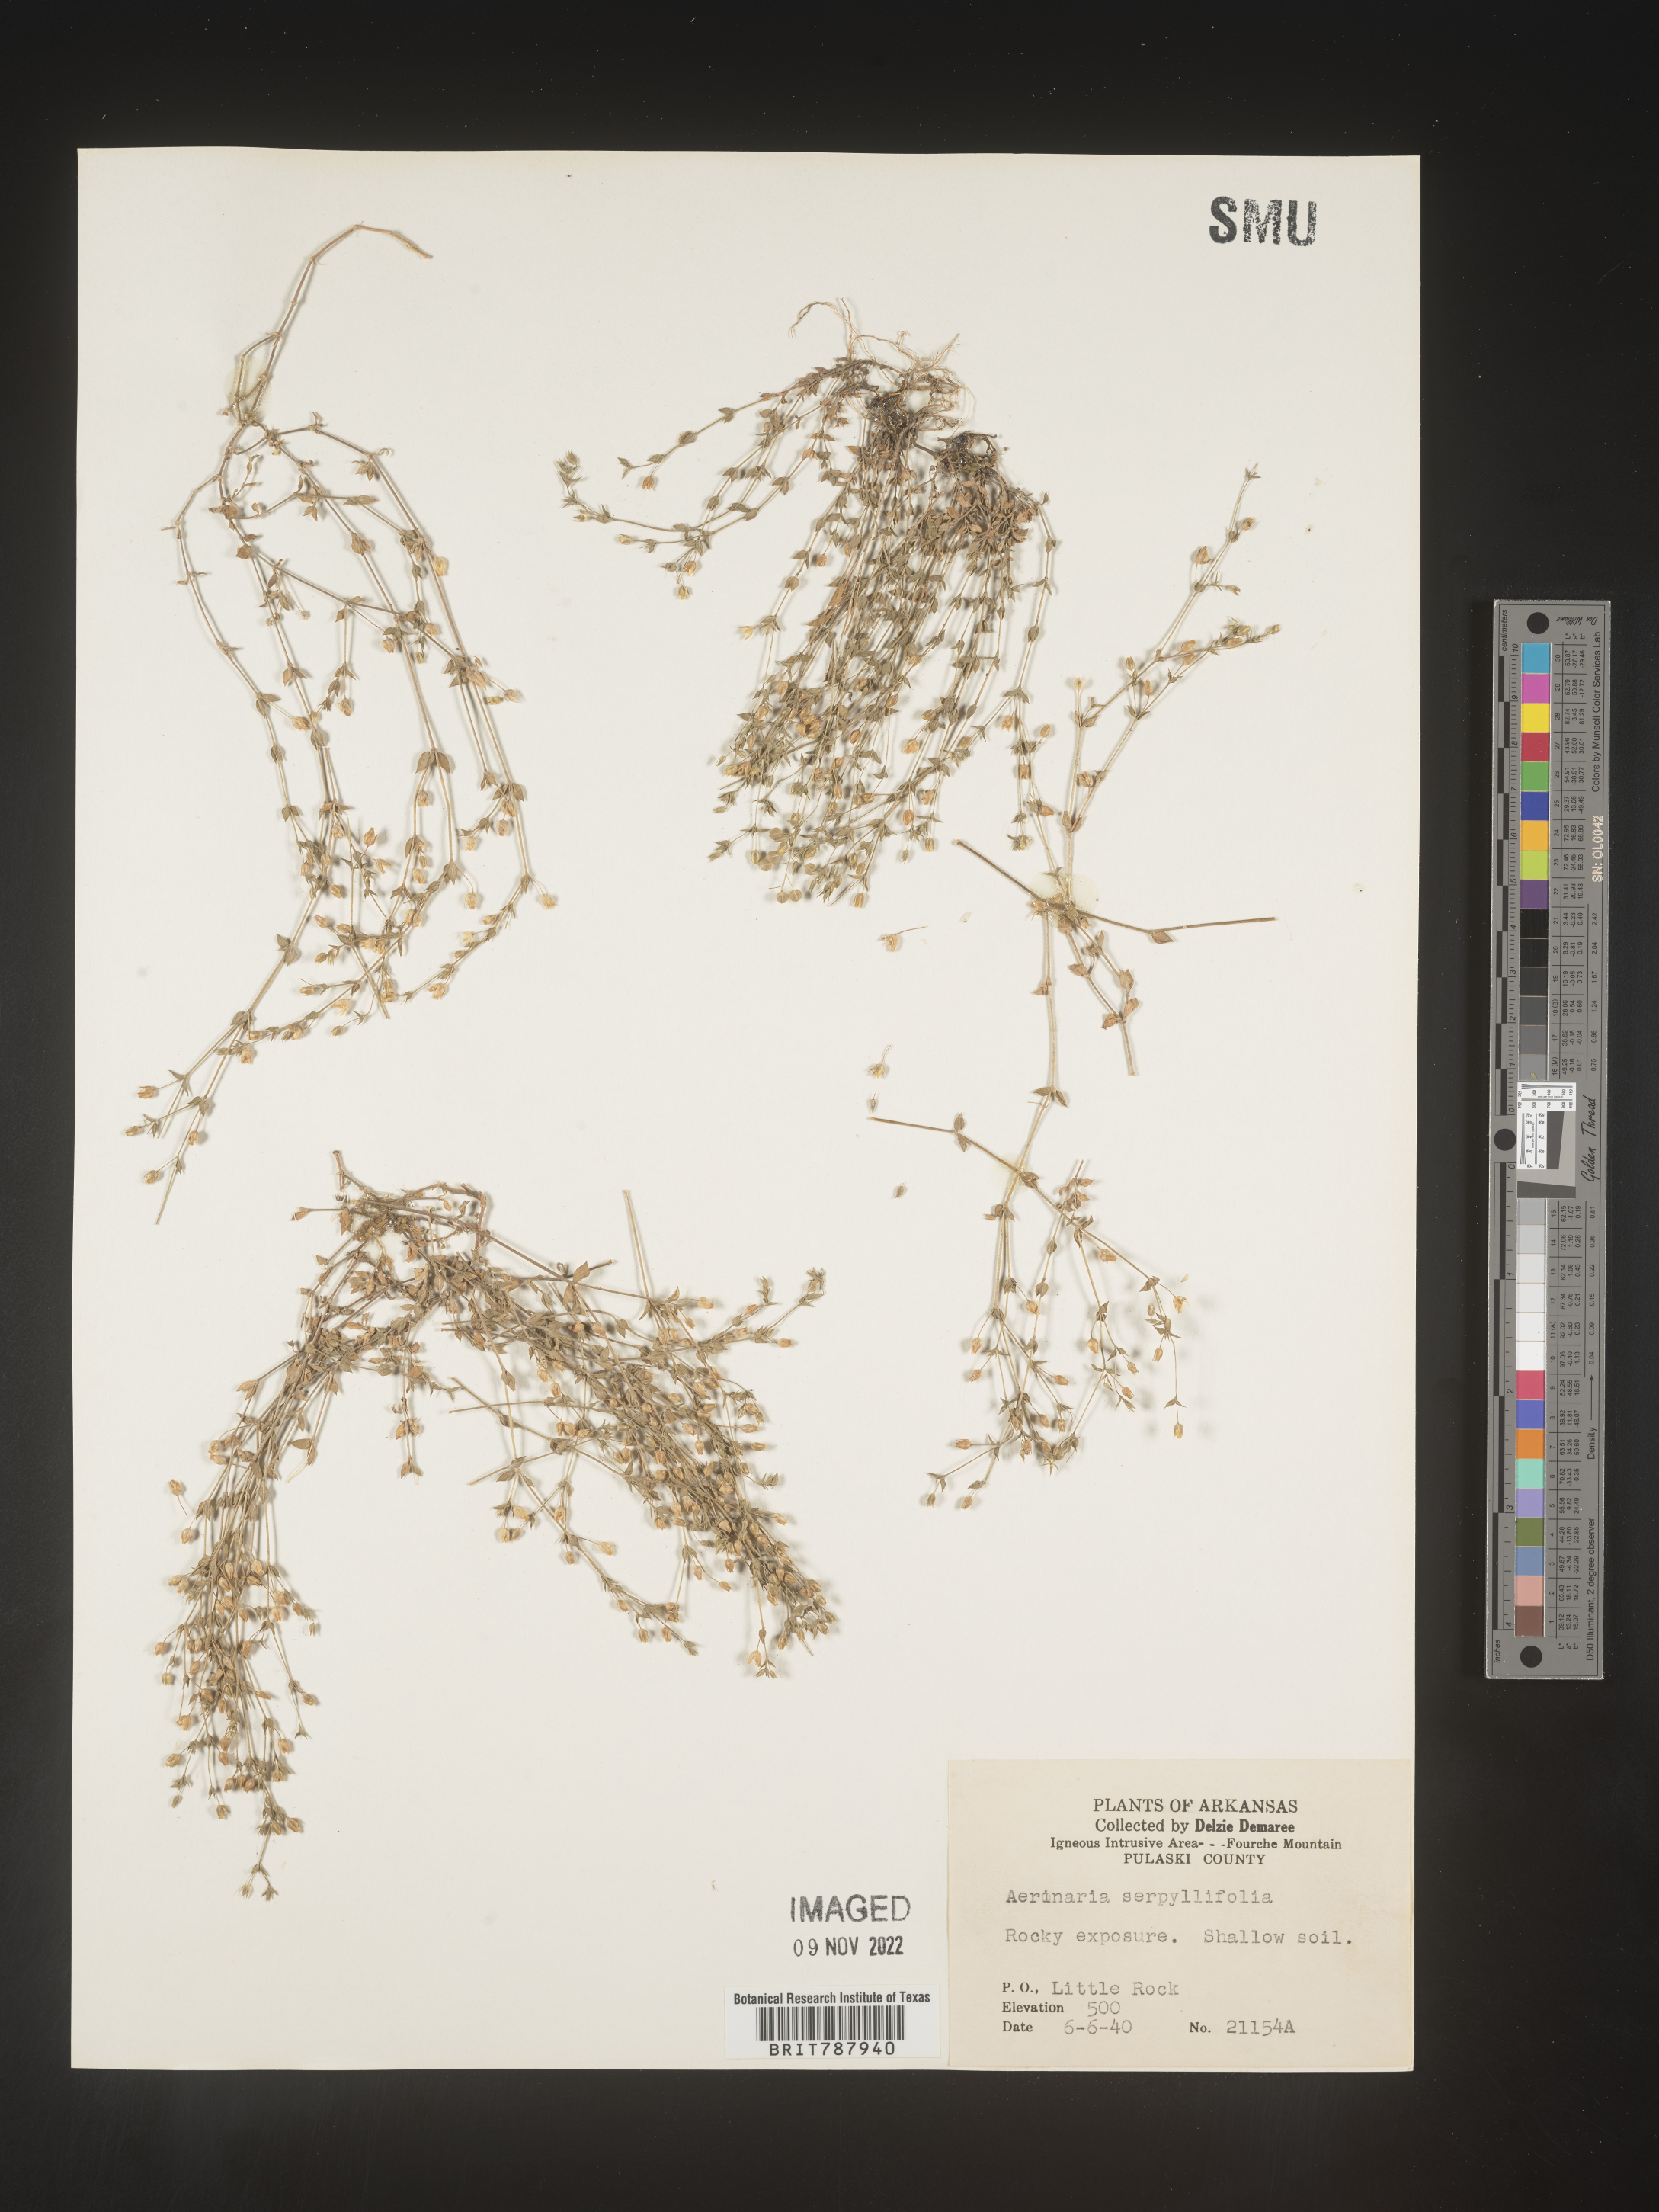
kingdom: Plantae
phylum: Tracheophyta
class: Magnoliopsida
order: Caryophyllales
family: Caryophyllaceae
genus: Arenaria
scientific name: Arenaria serpyllifolia
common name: Thyme-leaved sandwort
